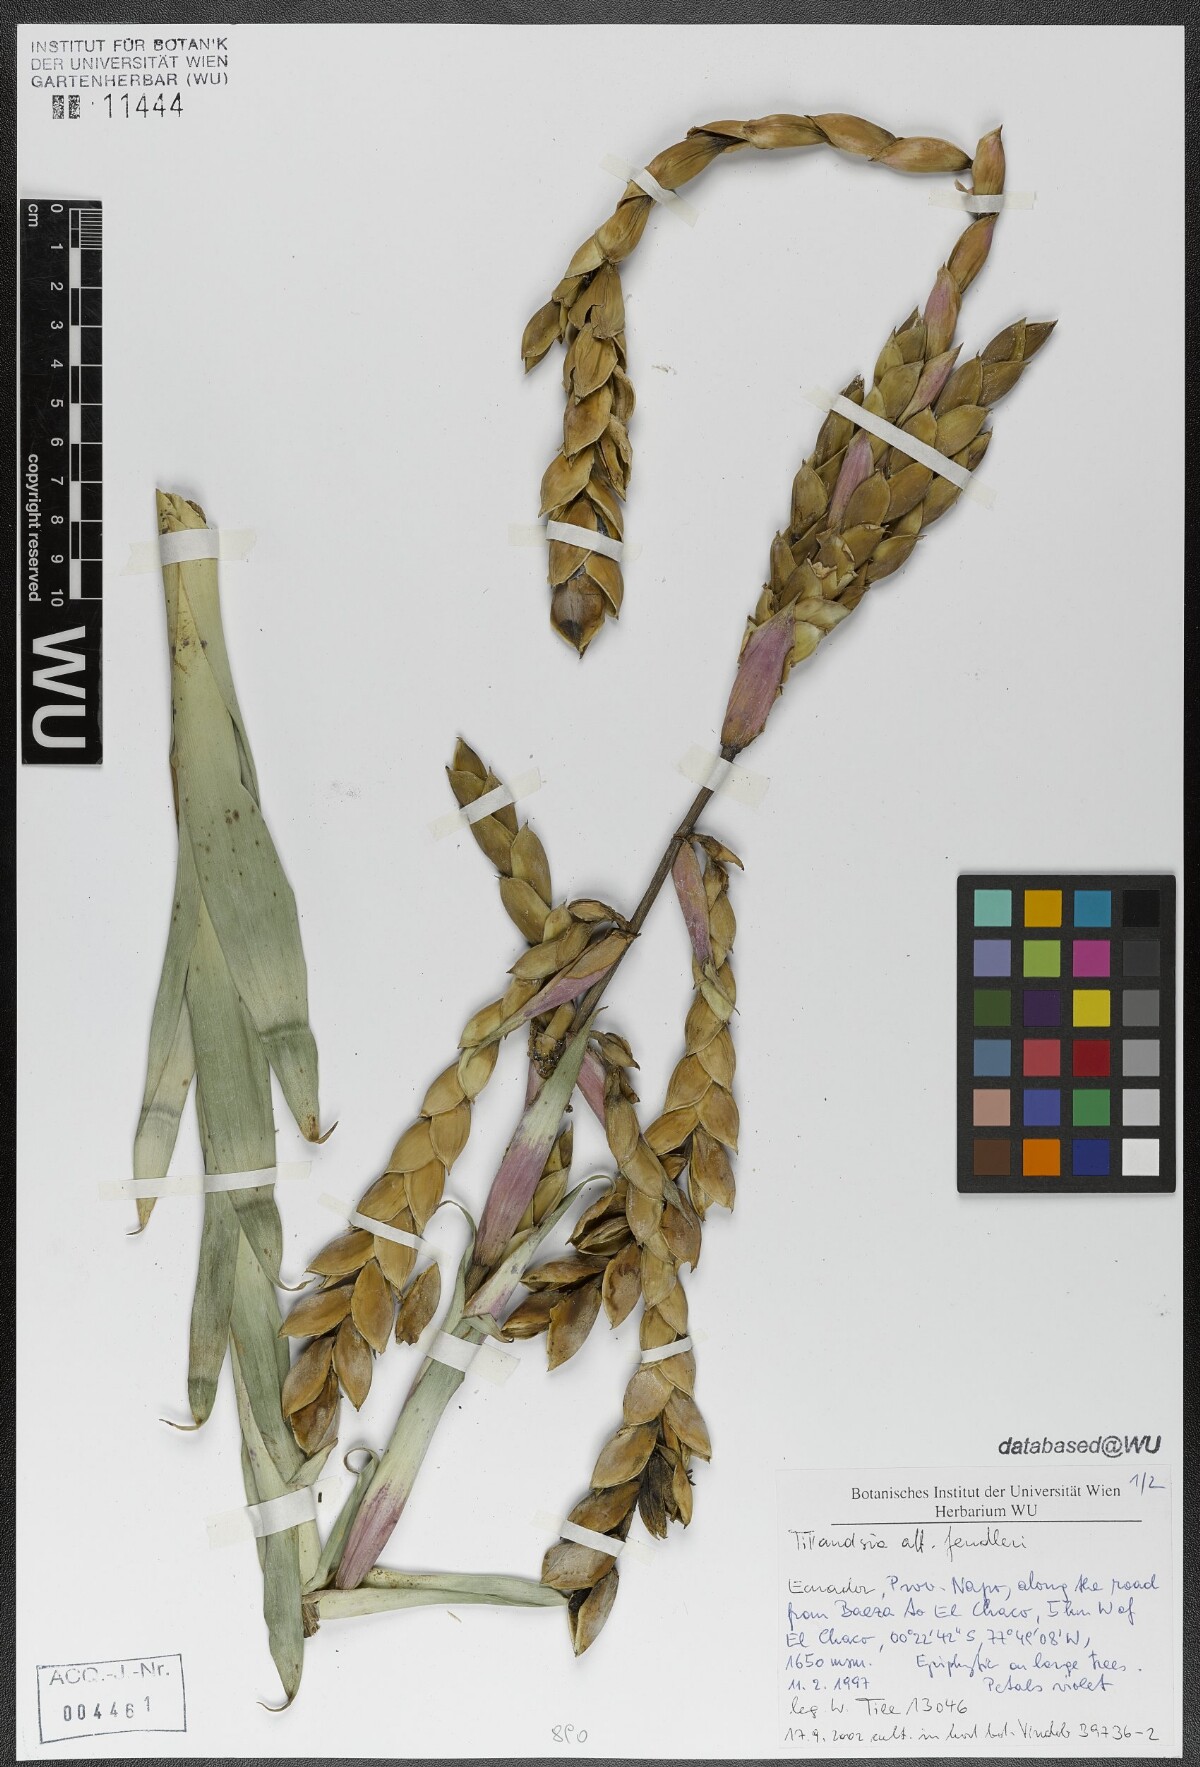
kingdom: Plantae
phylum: Tracheophyta
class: Liliopsida
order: Poales
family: Bromeliaceae
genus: Tillandsia
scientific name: Tillandsia fendleri
